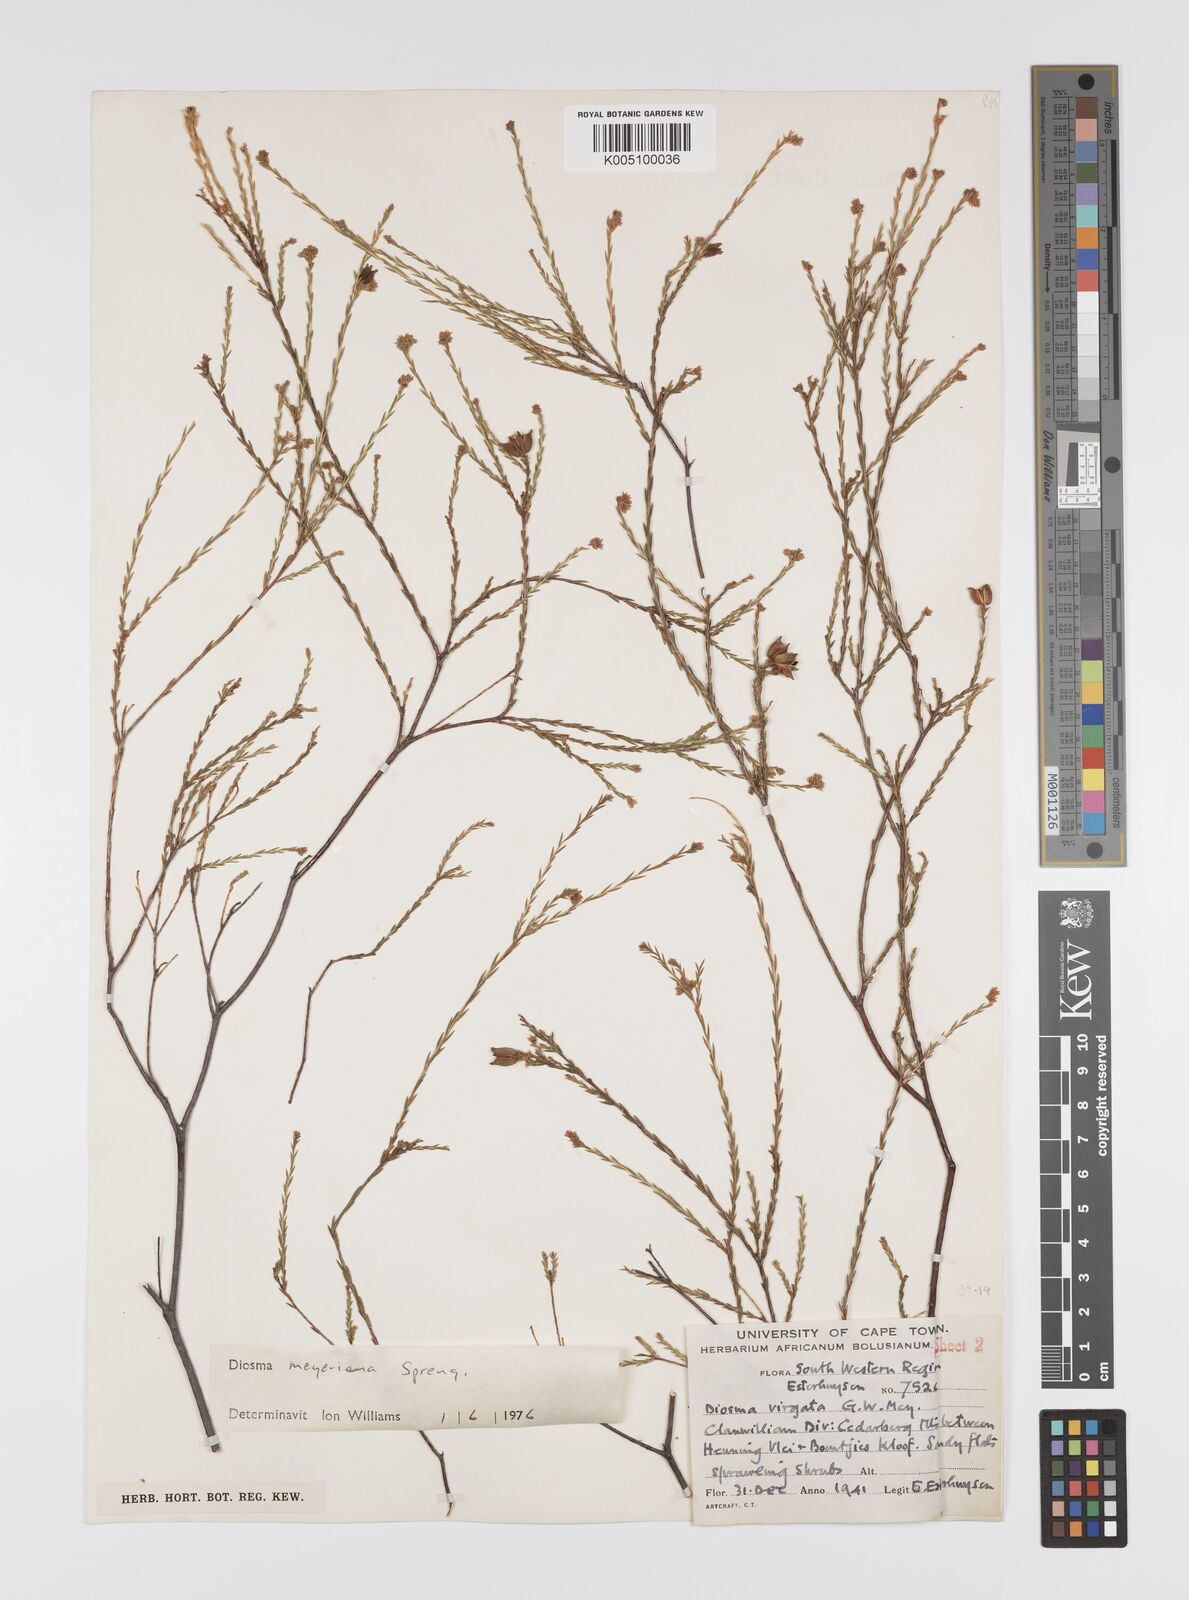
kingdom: Plantae
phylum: Tracheophyta
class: Magnoliopsida
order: Sapindales
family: Rutaceae
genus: Diosma
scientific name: Diosma
